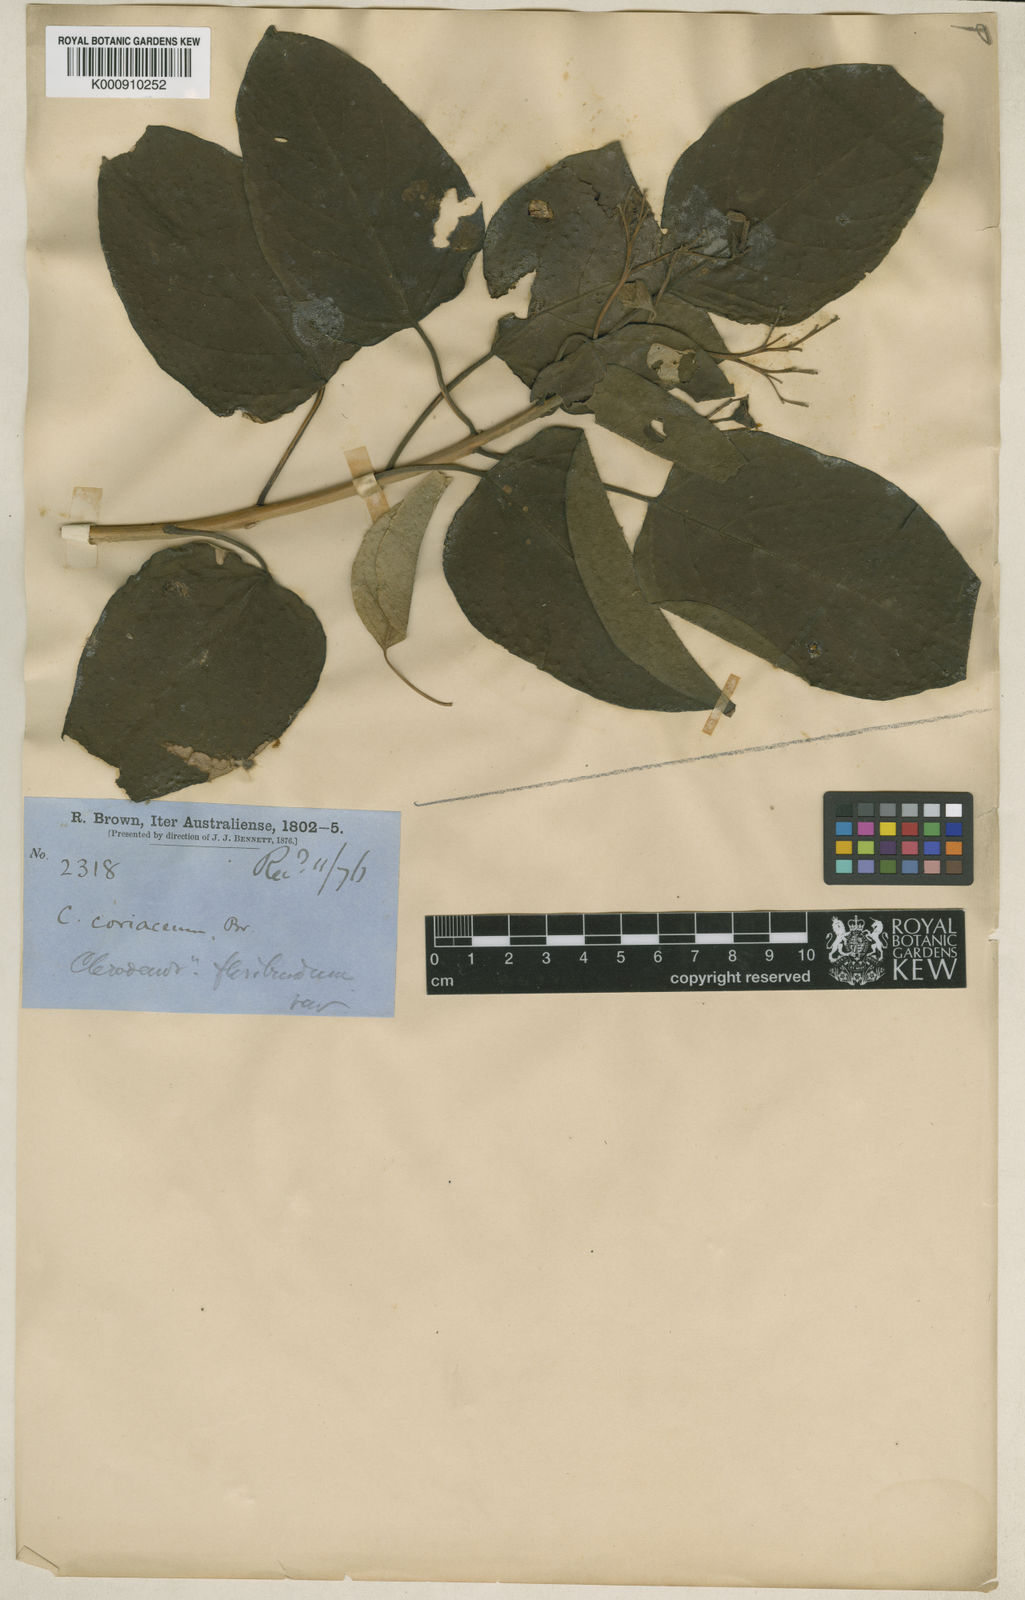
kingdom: Plantae
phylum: Tracheophyta
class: Magnoliopsida
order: Lamiales
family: Lamiaceae
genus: Clerodendrum
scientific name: Clerodendrum floribundum
